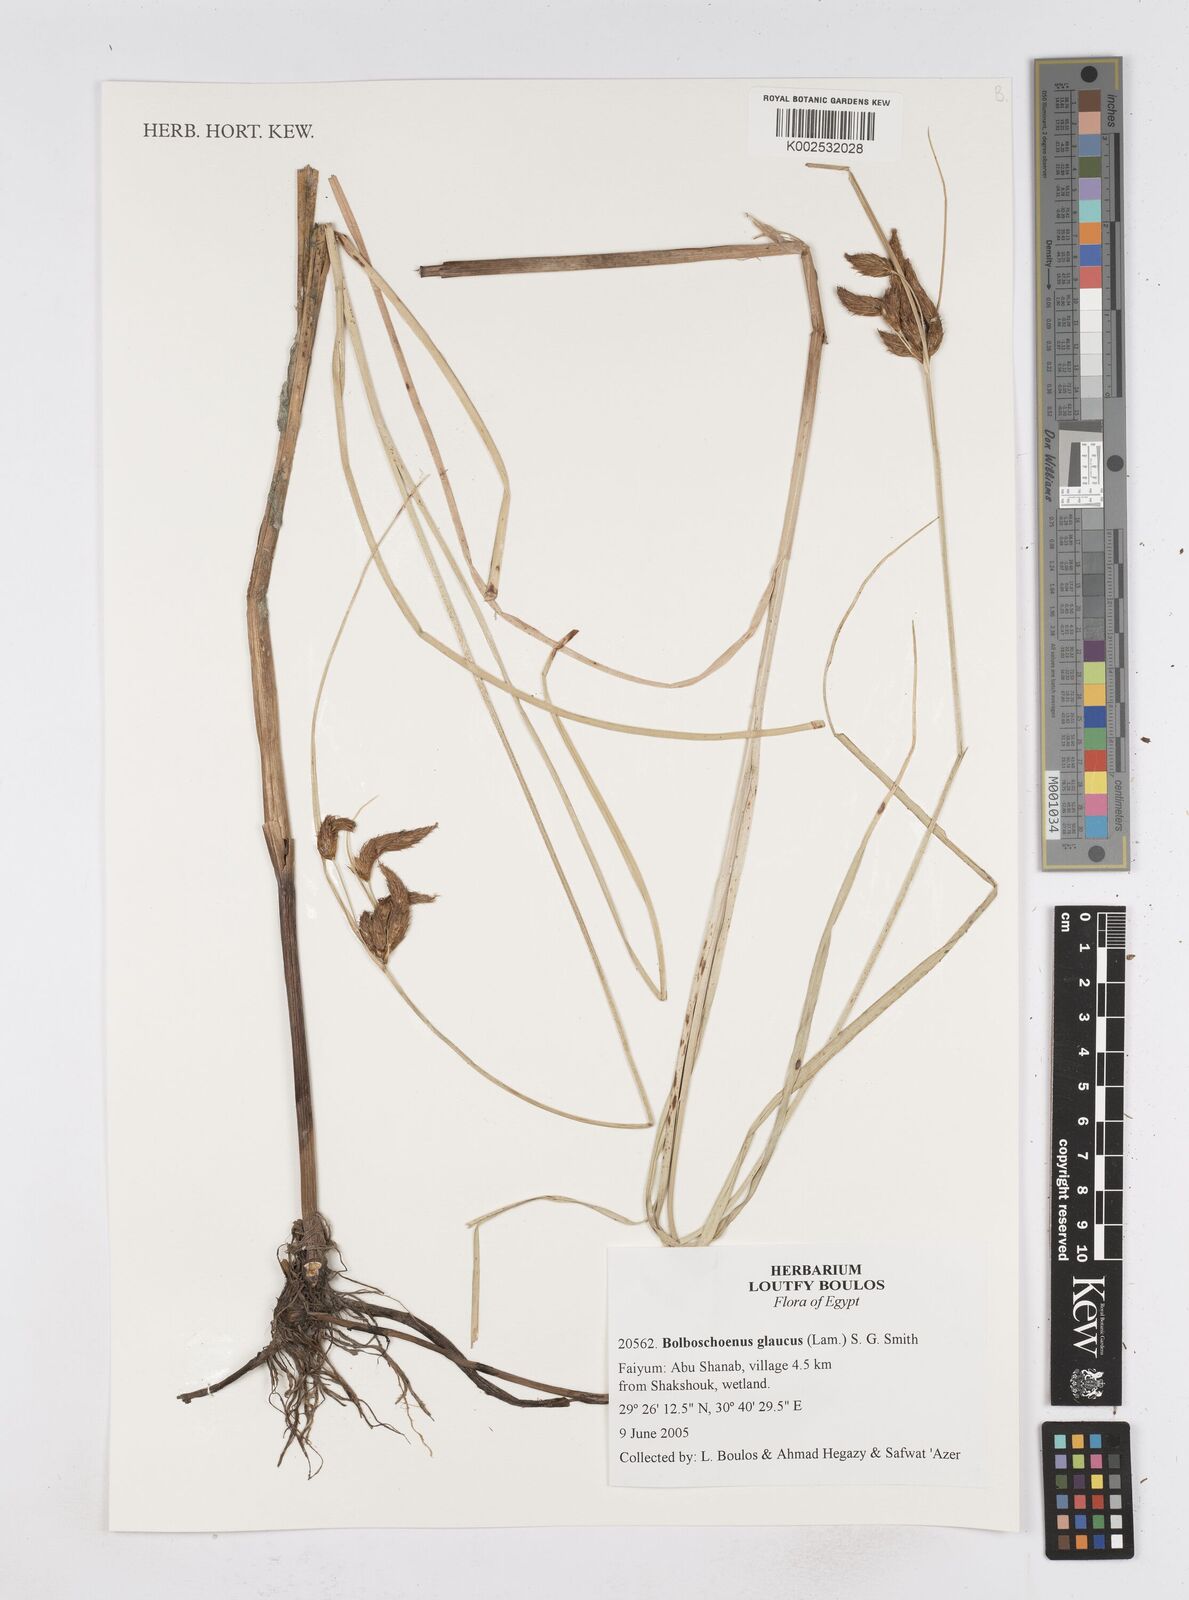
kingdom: Plantae
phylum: Tracheophyta
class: Liliopsida
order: Poales
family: Cyperaceae
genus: Bolboschoenus
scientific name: Bolboschoenus glaucus
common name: Tuberous bulrush
